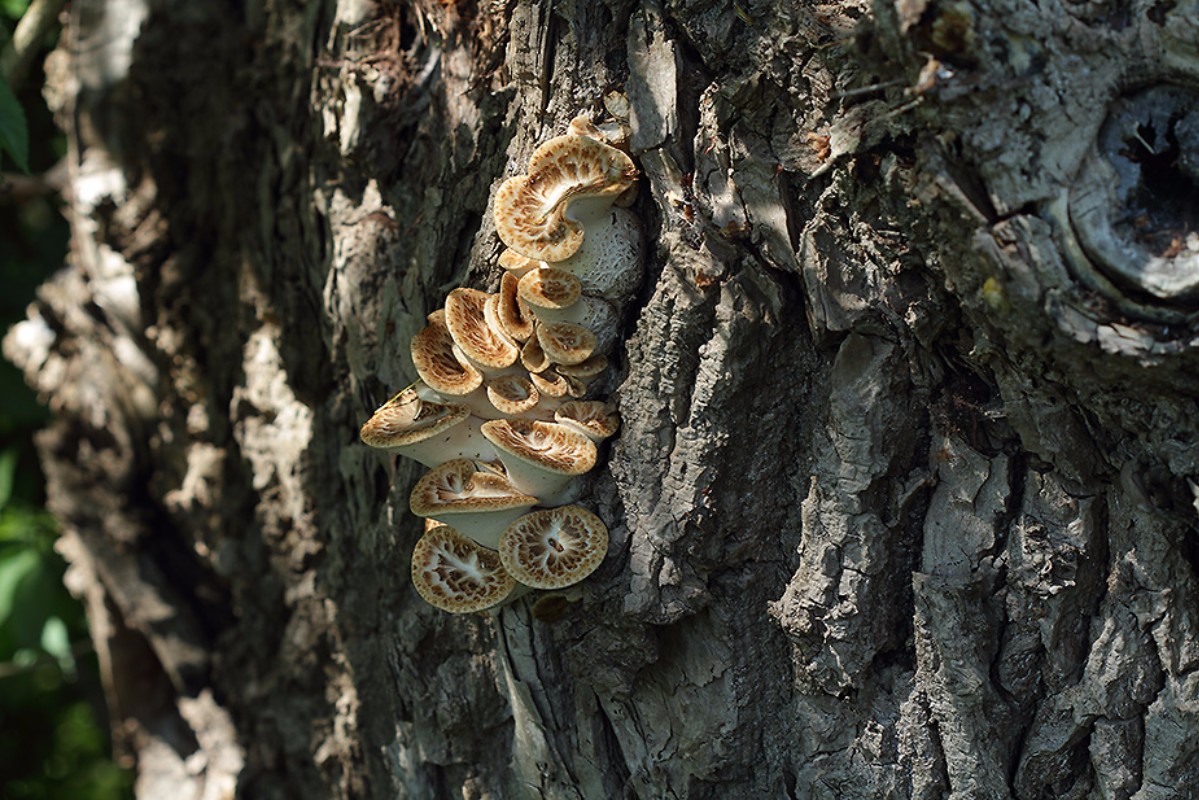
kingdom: Fungi
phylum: Basidiomycota
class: Agaricomycetes
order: Polyporales
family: Polyporaceae
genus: Cerioporus
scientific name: Cerioporus squamosus
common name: skællet stilkporesvamp
